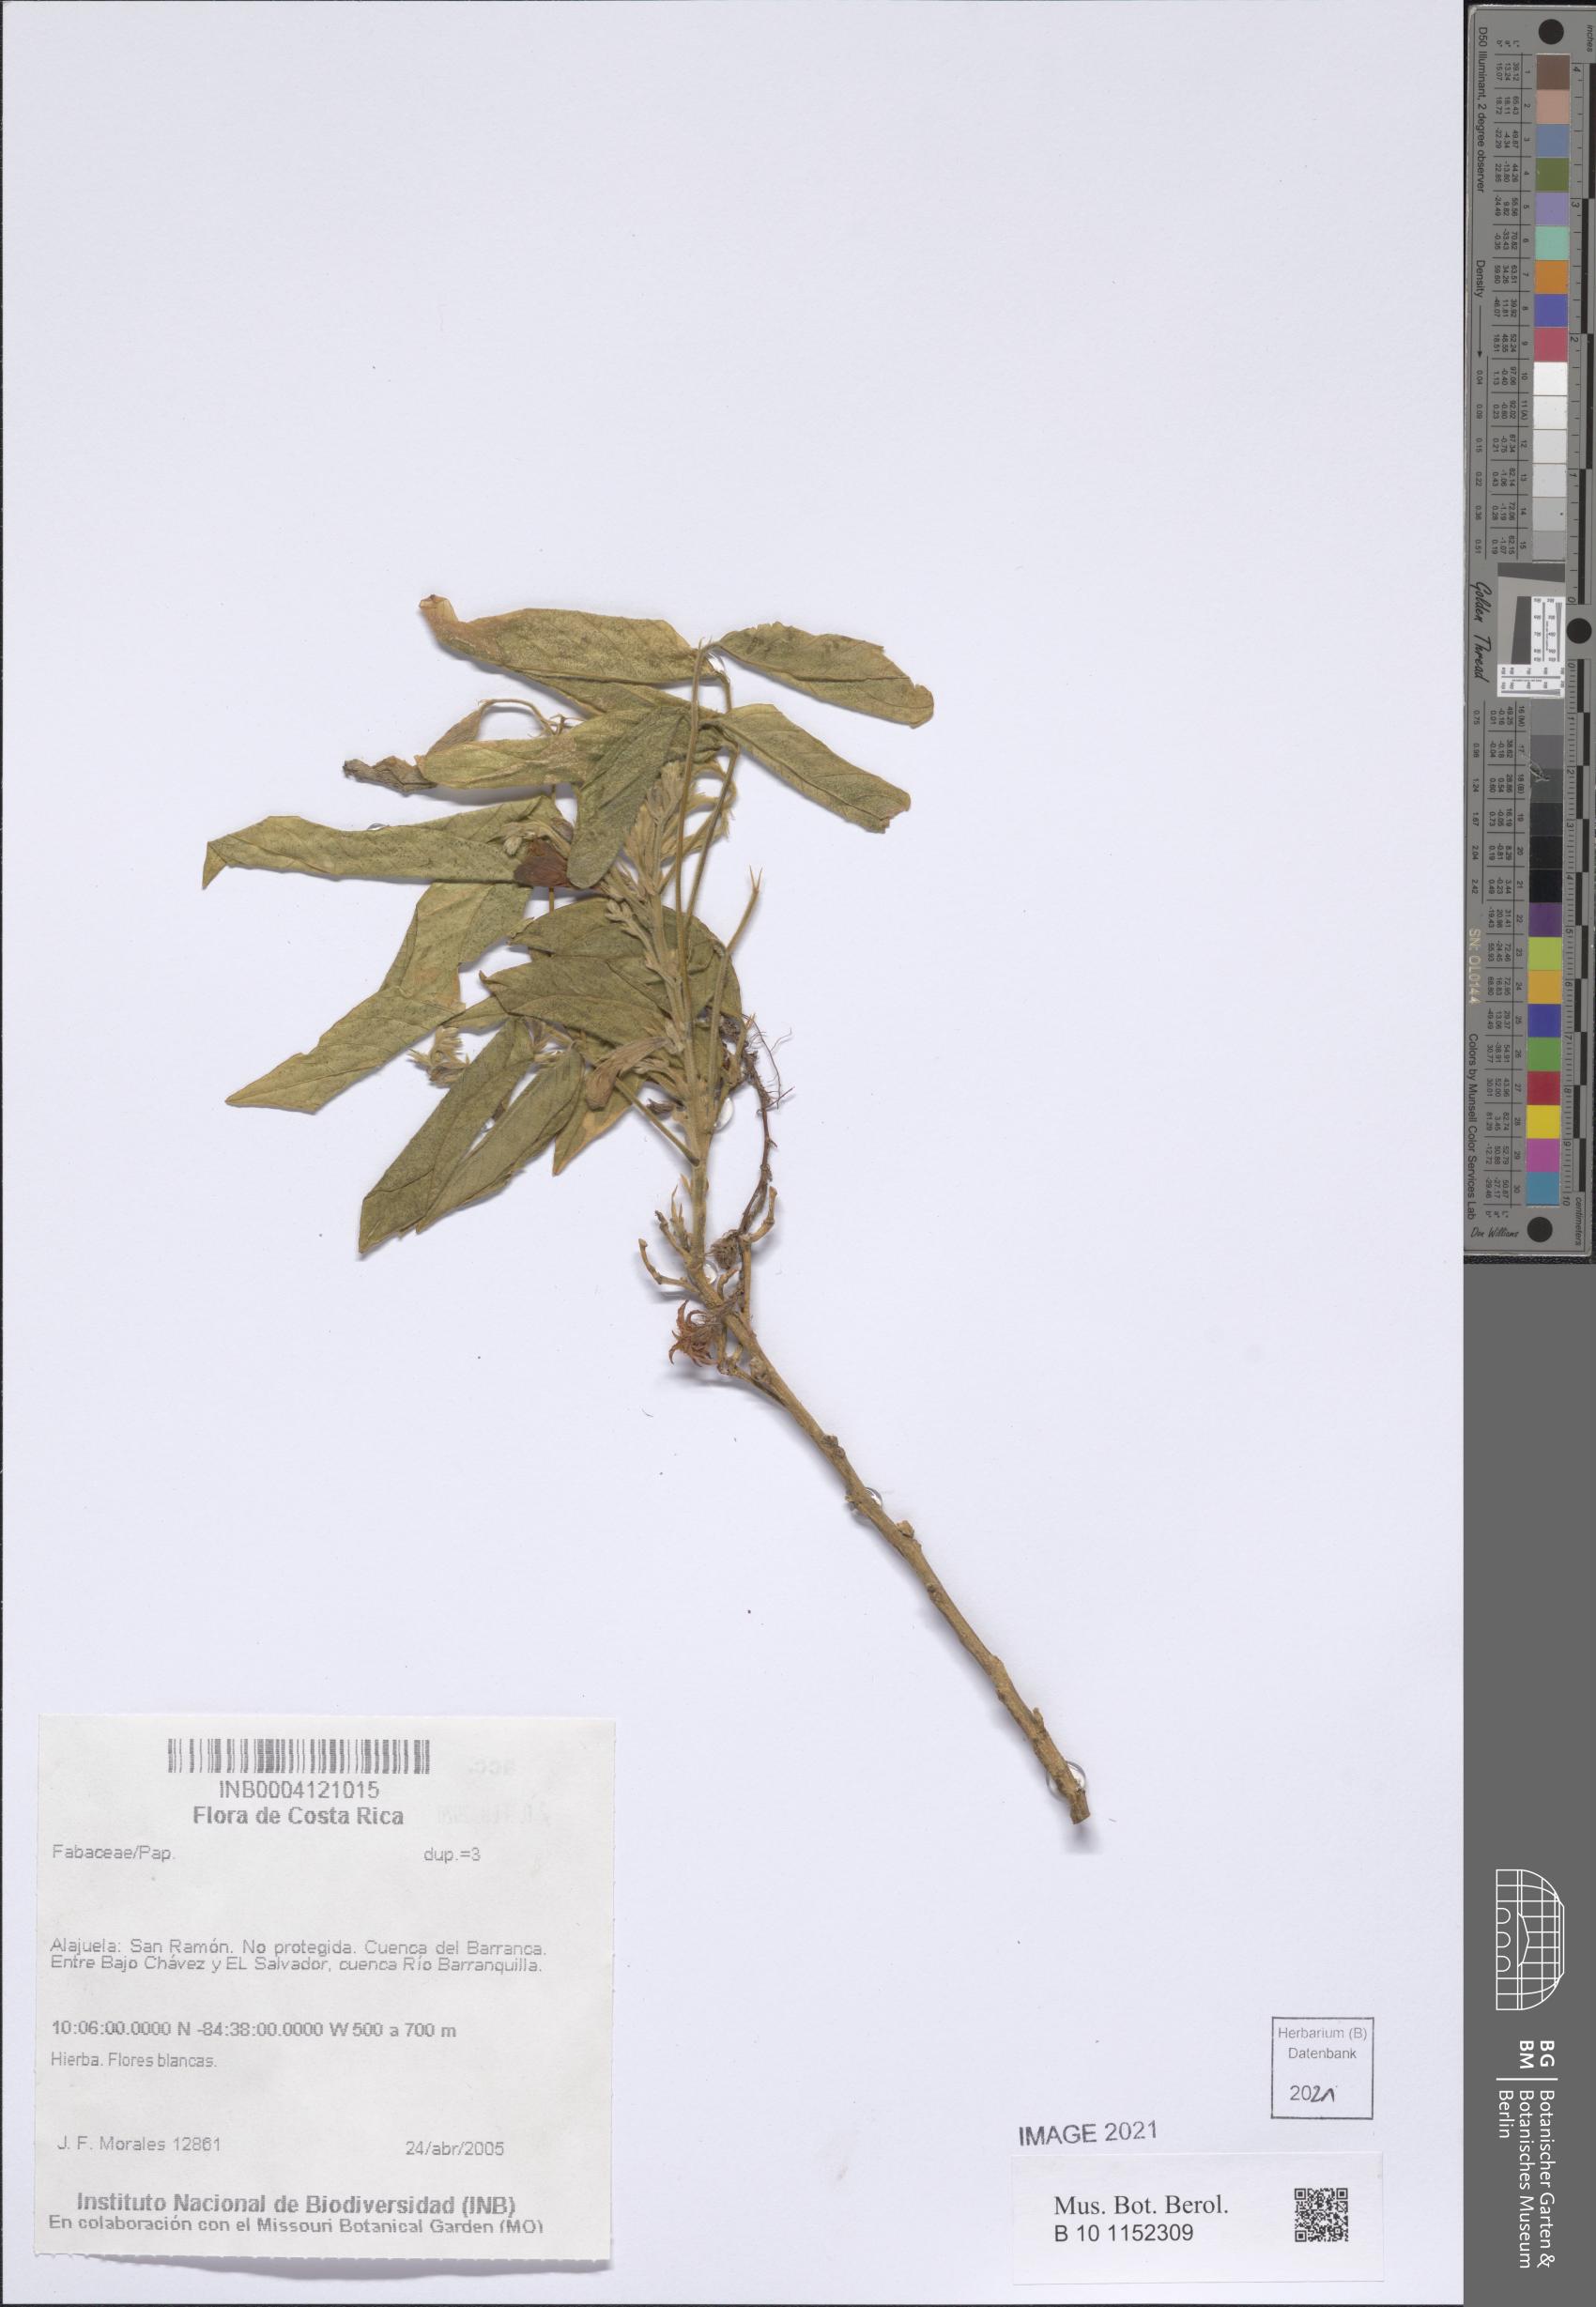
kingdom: Plantae
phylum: Tracheophyta
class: Magnoliopsida
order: Fabales
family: Fabaceae
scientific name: Fabaceae
